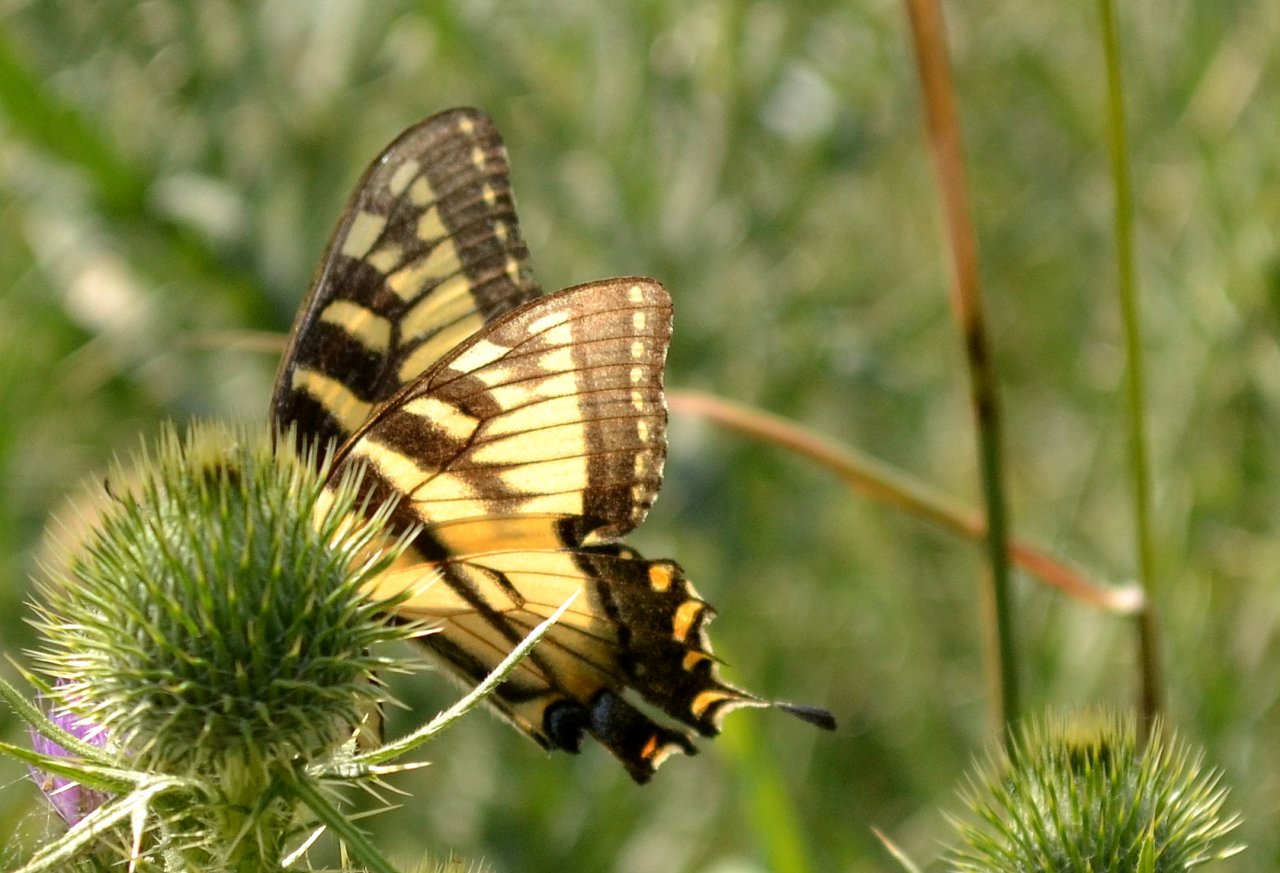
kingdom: Animalia
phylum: Arthropoda
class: Insecta
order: Lepidoptera
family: Papilionidae
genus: Pterourus
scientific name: Pterourus glaucus
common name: Eastern Tiger Swallowtail
